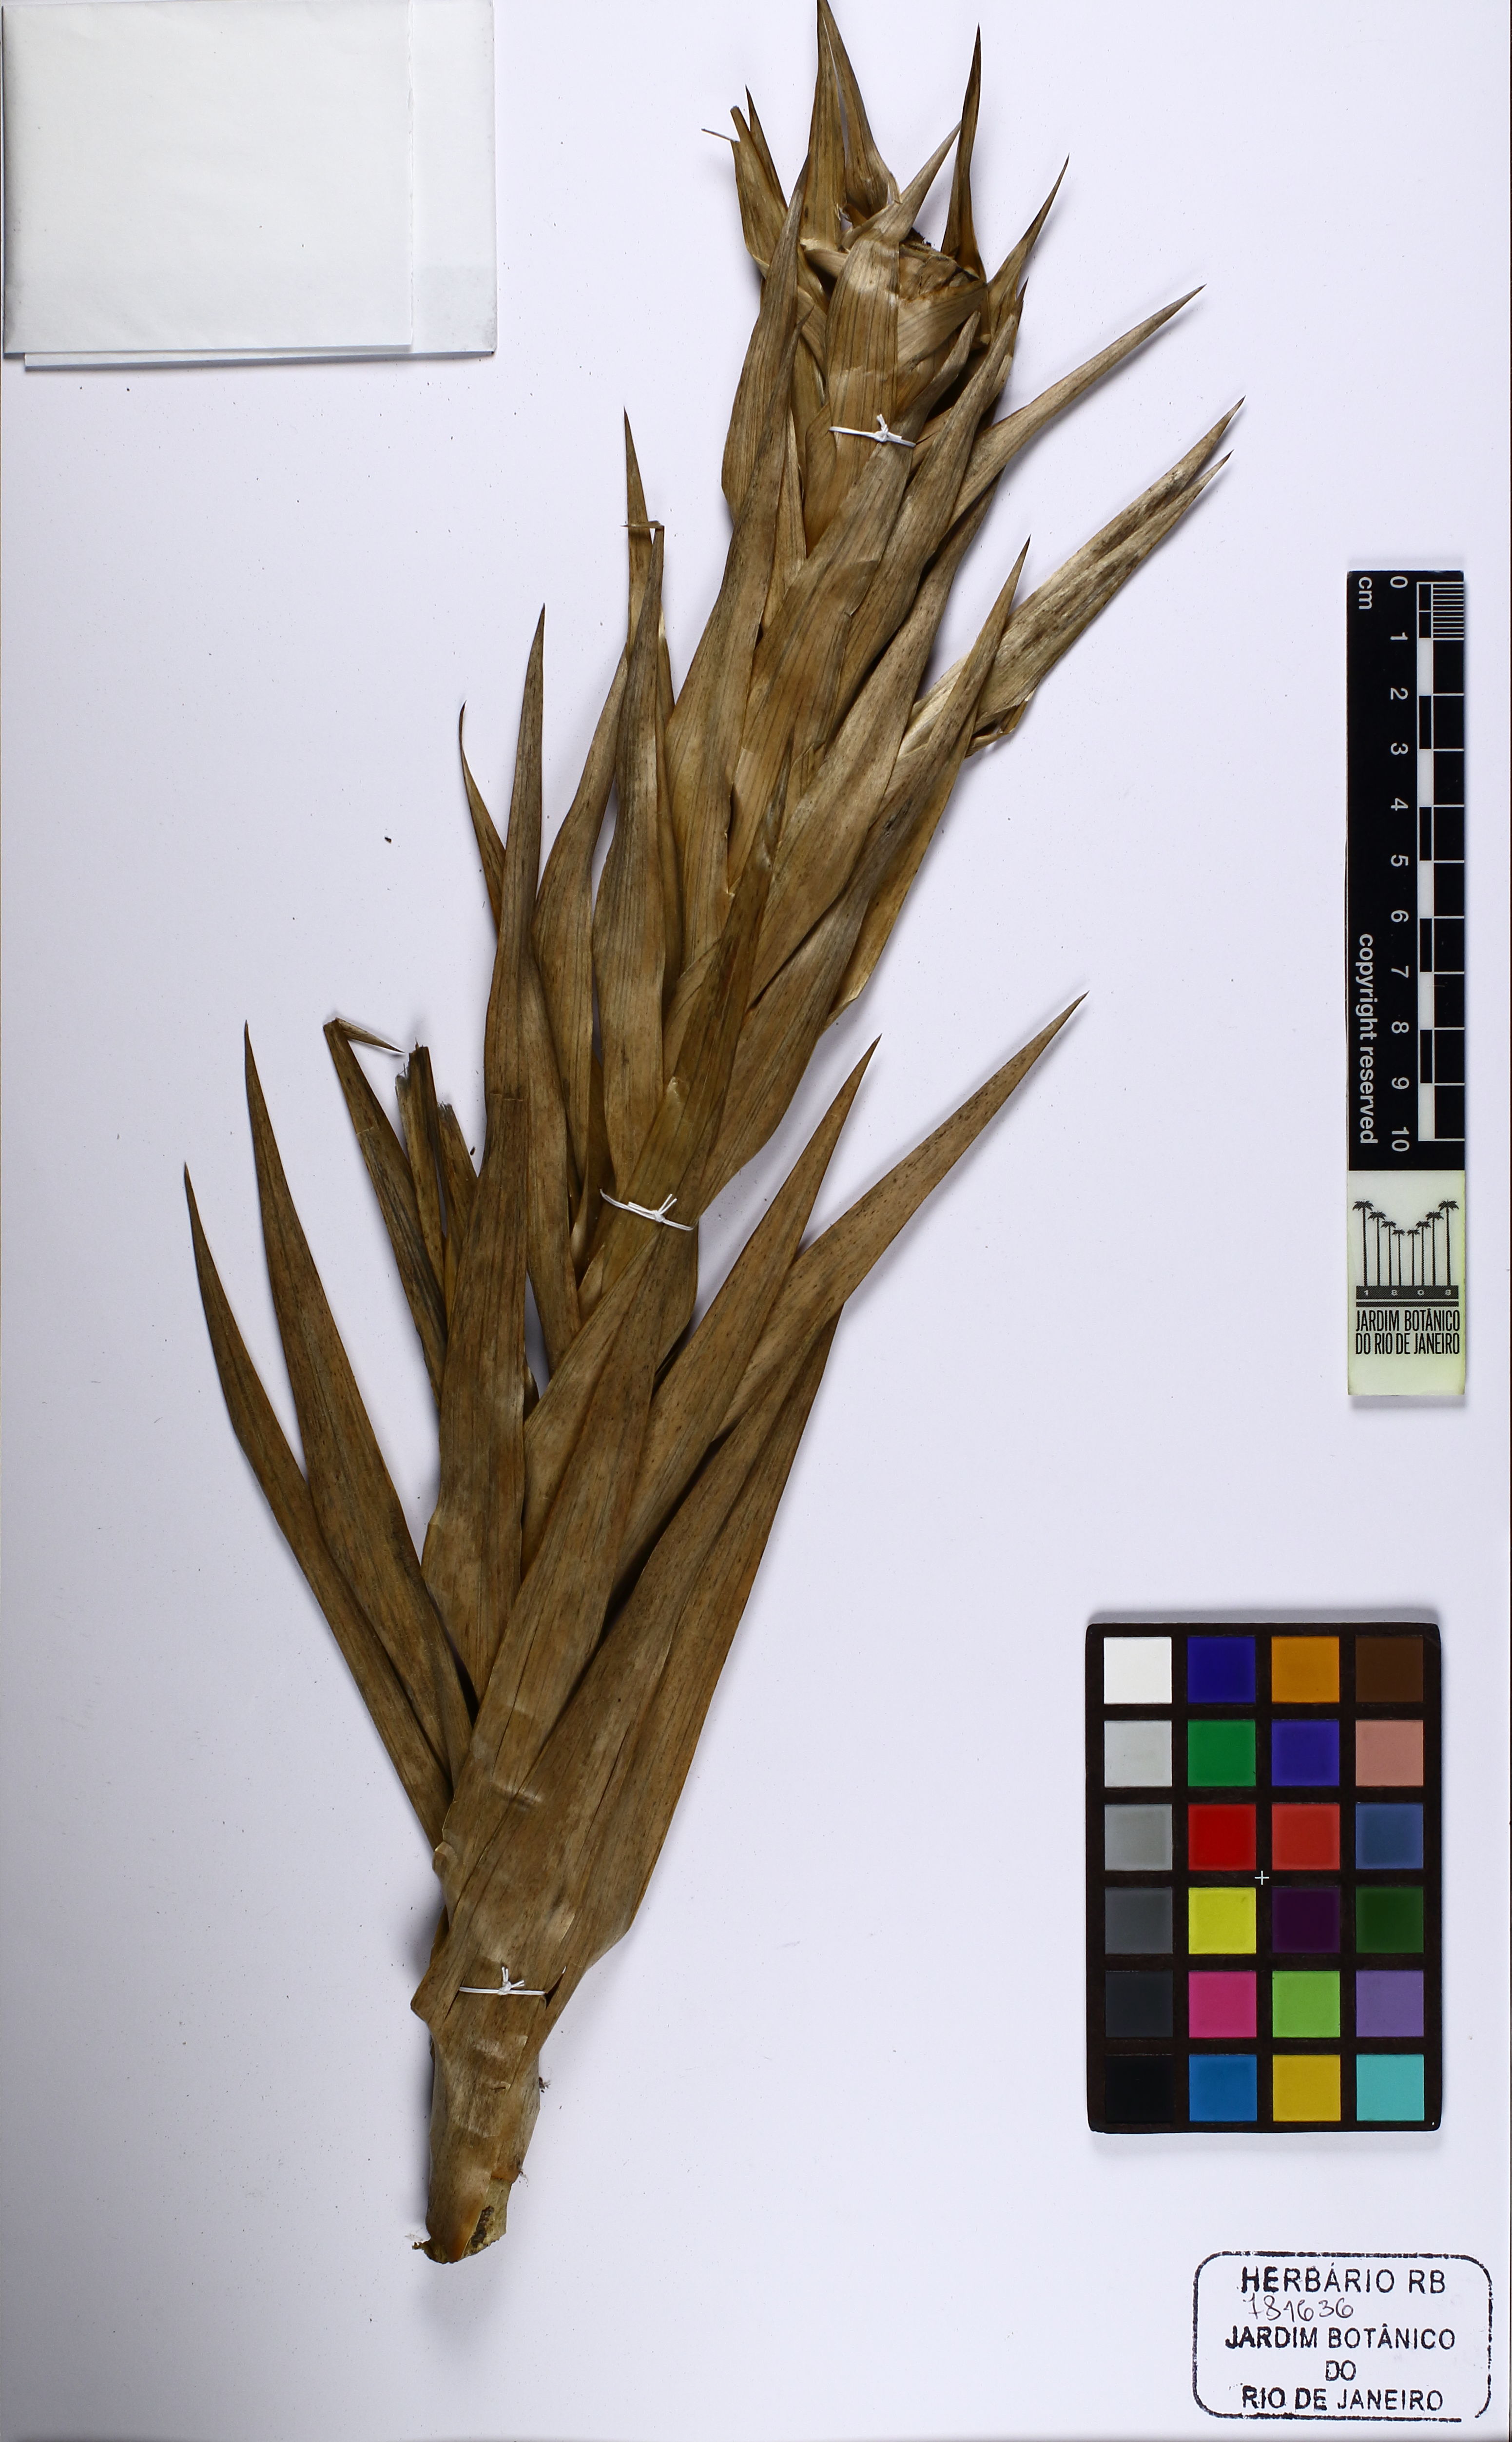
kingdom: Plantae
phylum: Tracheophyta
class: Liliopsida
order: Poales
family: Eriocaulaceae
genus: Paepalanthus
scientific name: Paepalanthus chiquitensis
